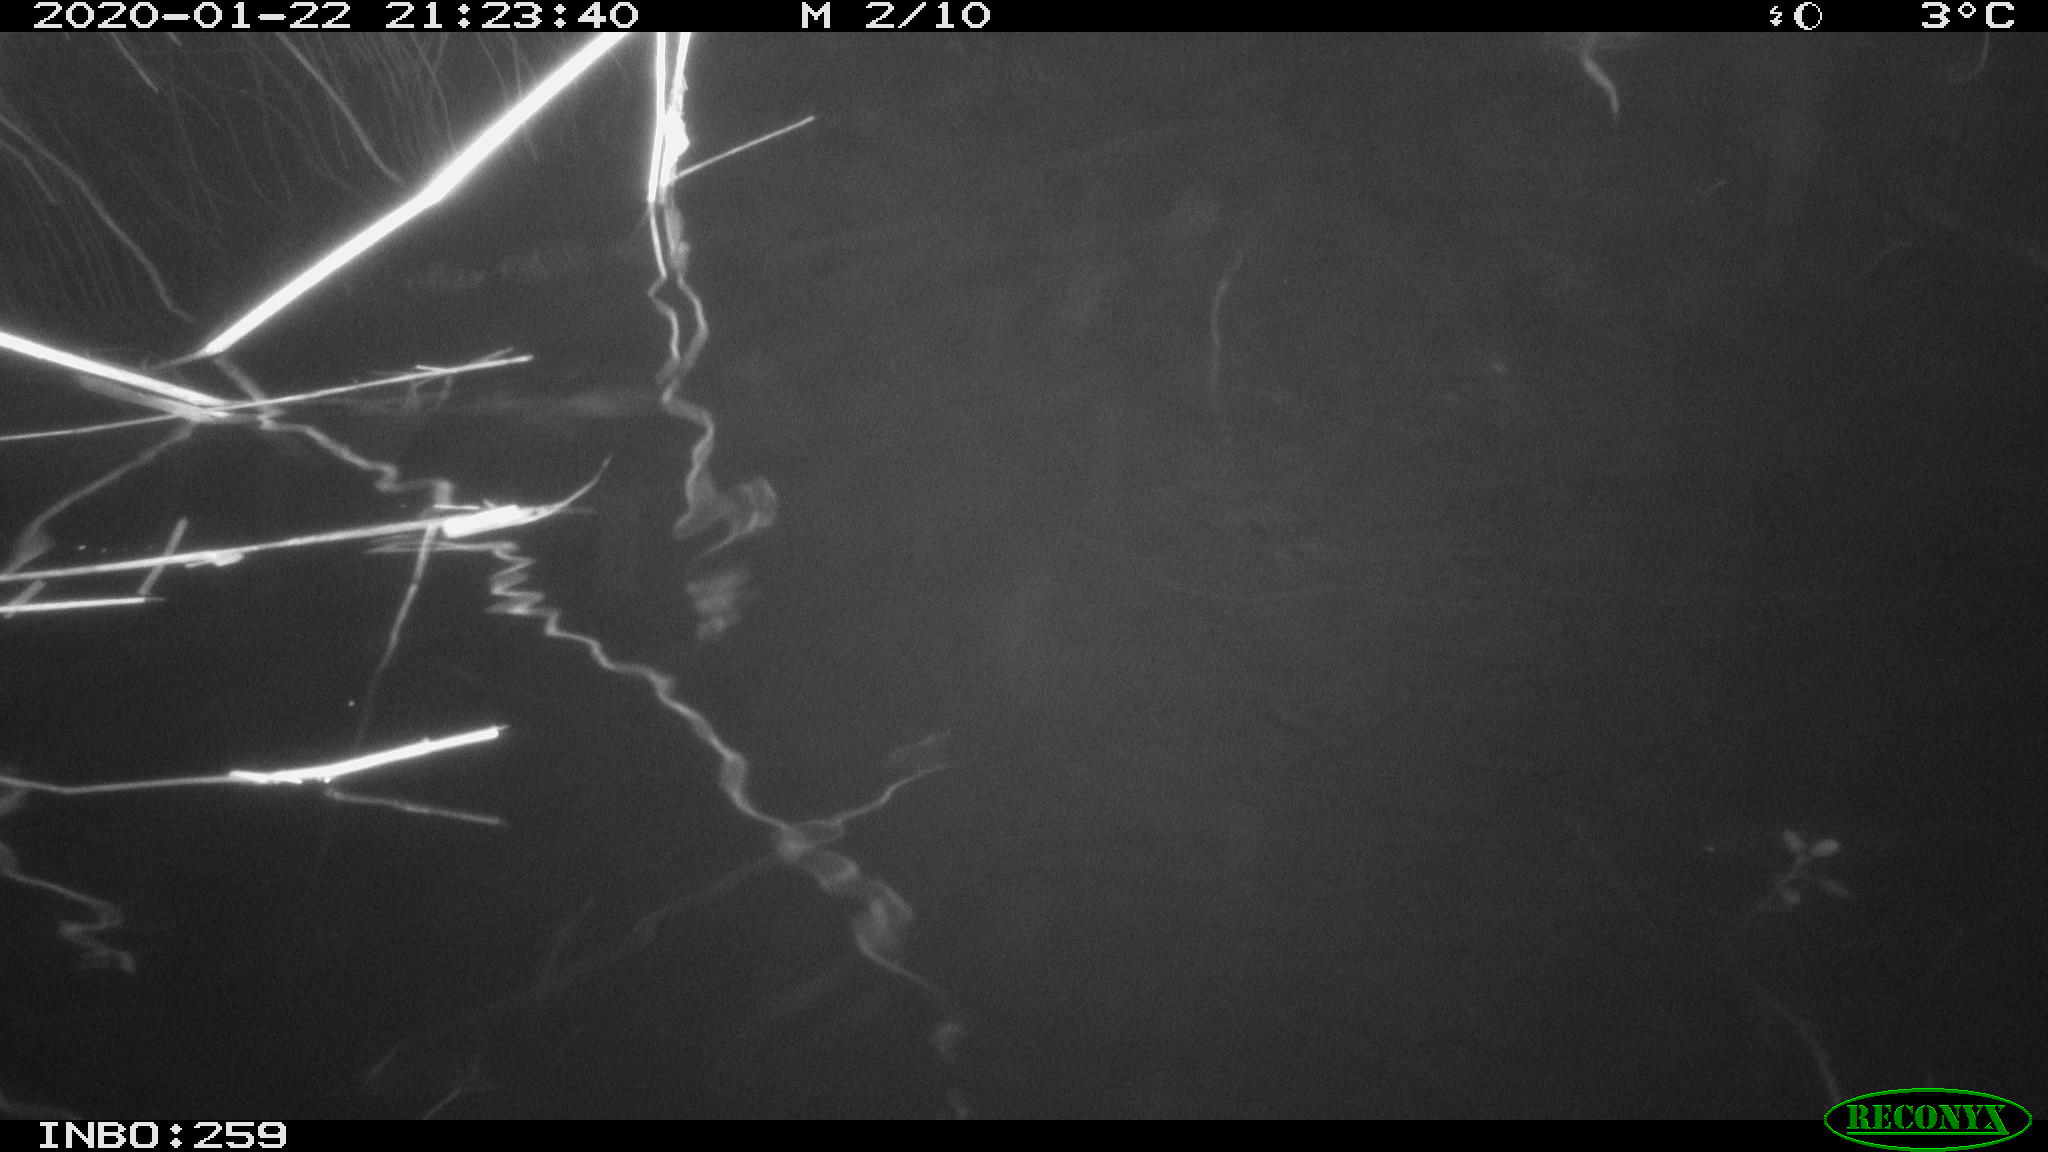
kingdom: Animalia
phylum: Chordata
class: Mammalia
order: Rodentia
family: Cricetidae
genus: Ondatra
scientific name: Ondatra zibethicus
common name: Muskrat
